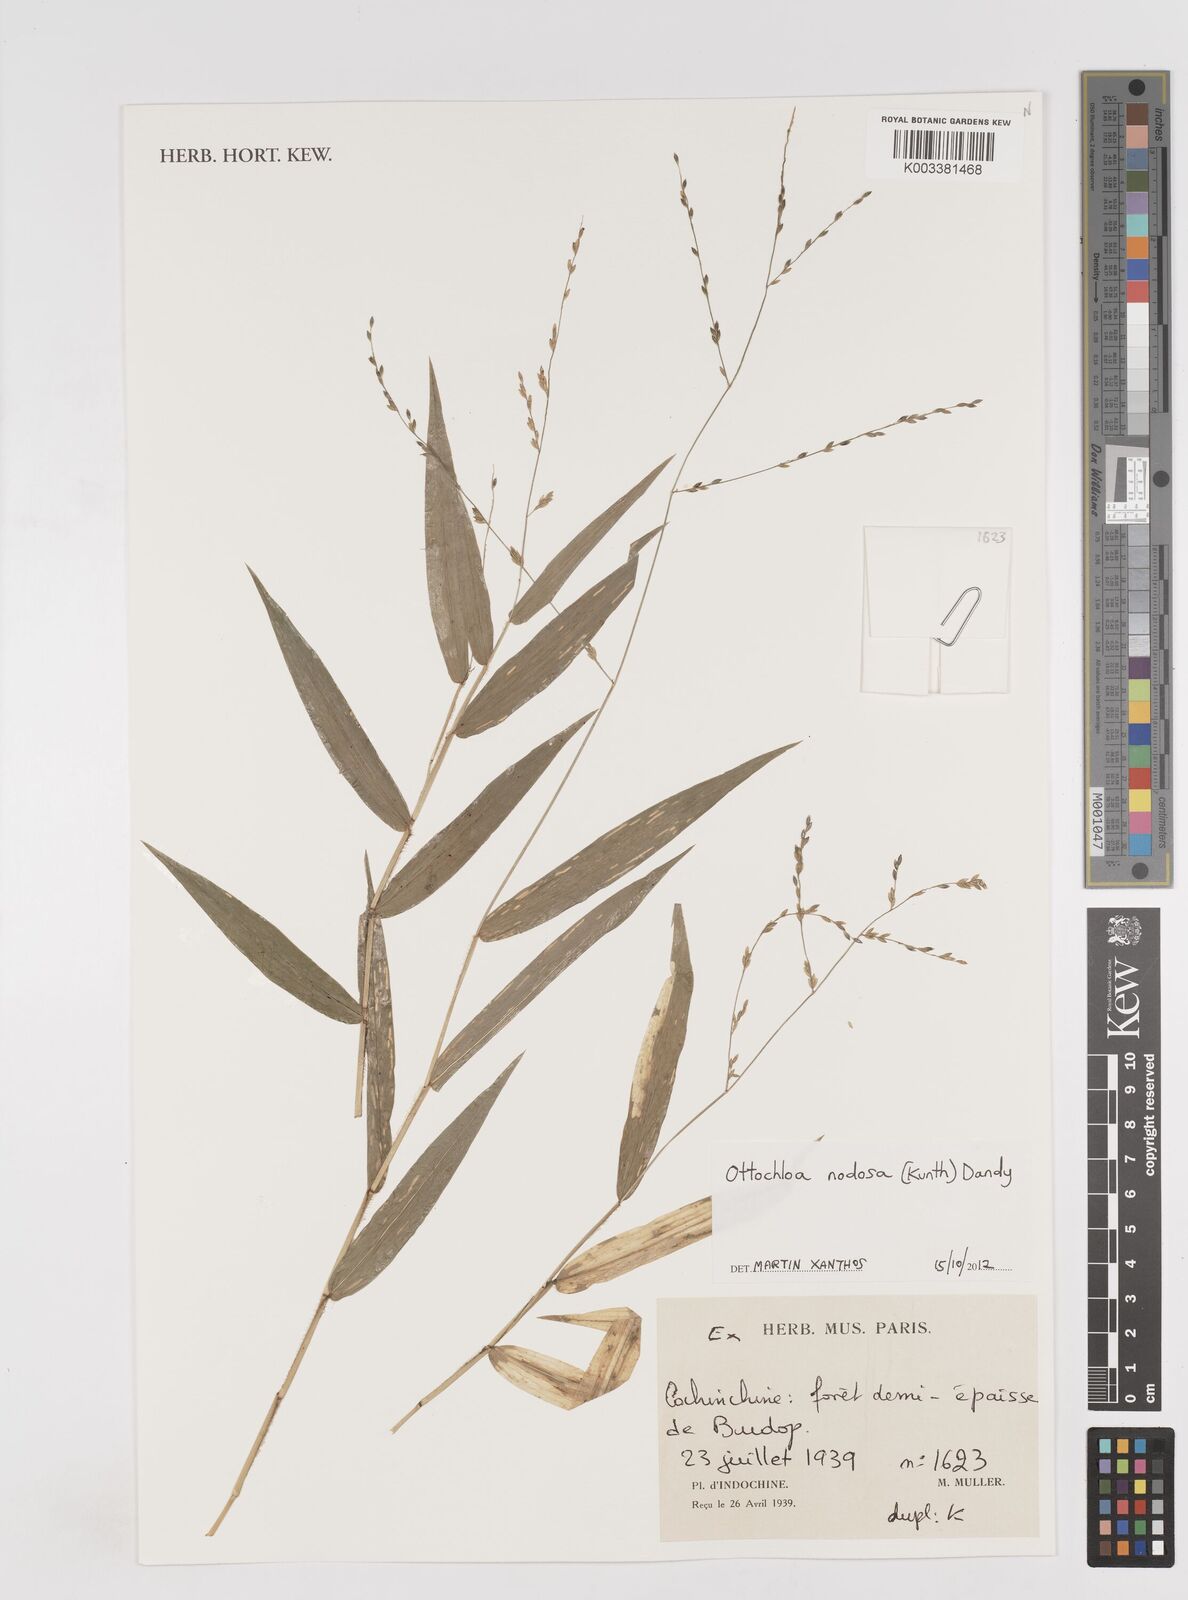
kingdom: Plantae
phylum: Tracheophyta
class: Liliopsida
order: Poales
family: Poaceae
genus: Ottochloa
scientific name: Ottochloa nodosa
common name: Slender-panic grass
